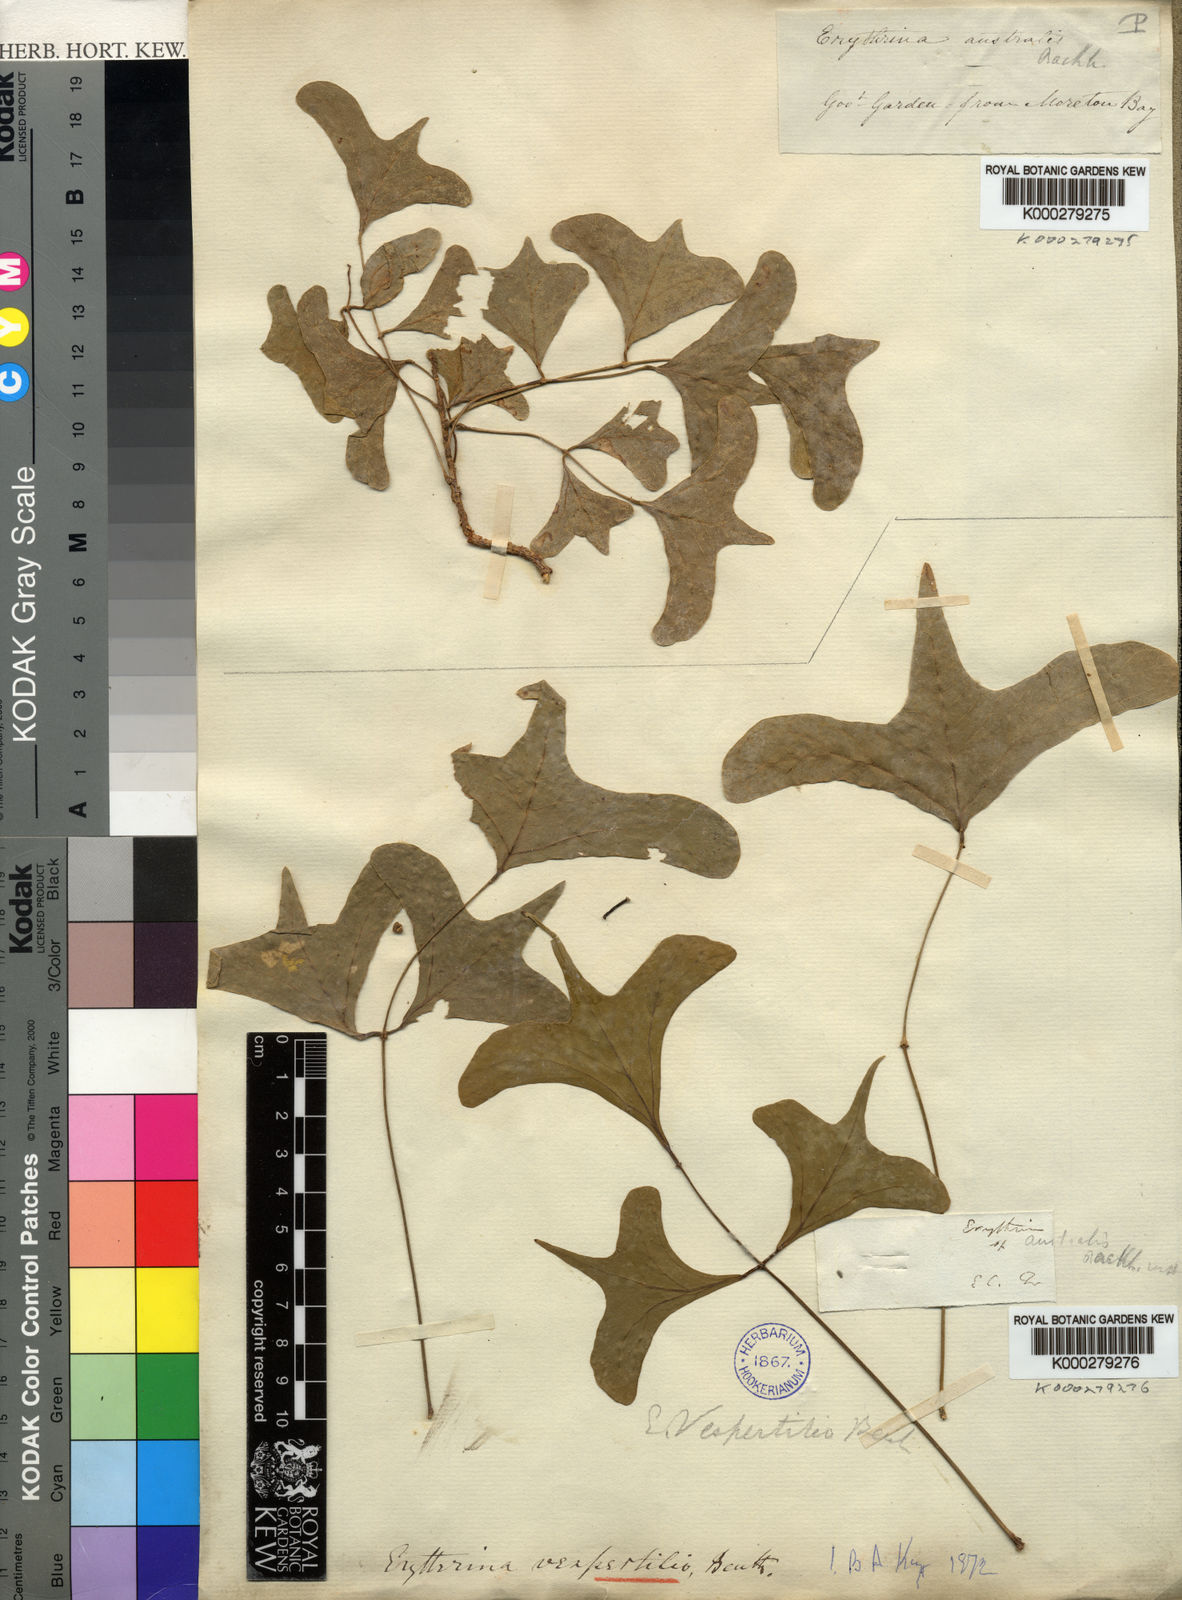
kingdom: Plantae
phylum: Tracheophyta
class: Magnoliopsida
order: Fabales
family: Fabaceae
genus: Erythrina
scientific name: Erythrina vespertilio
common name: Bat-wing coral tree
